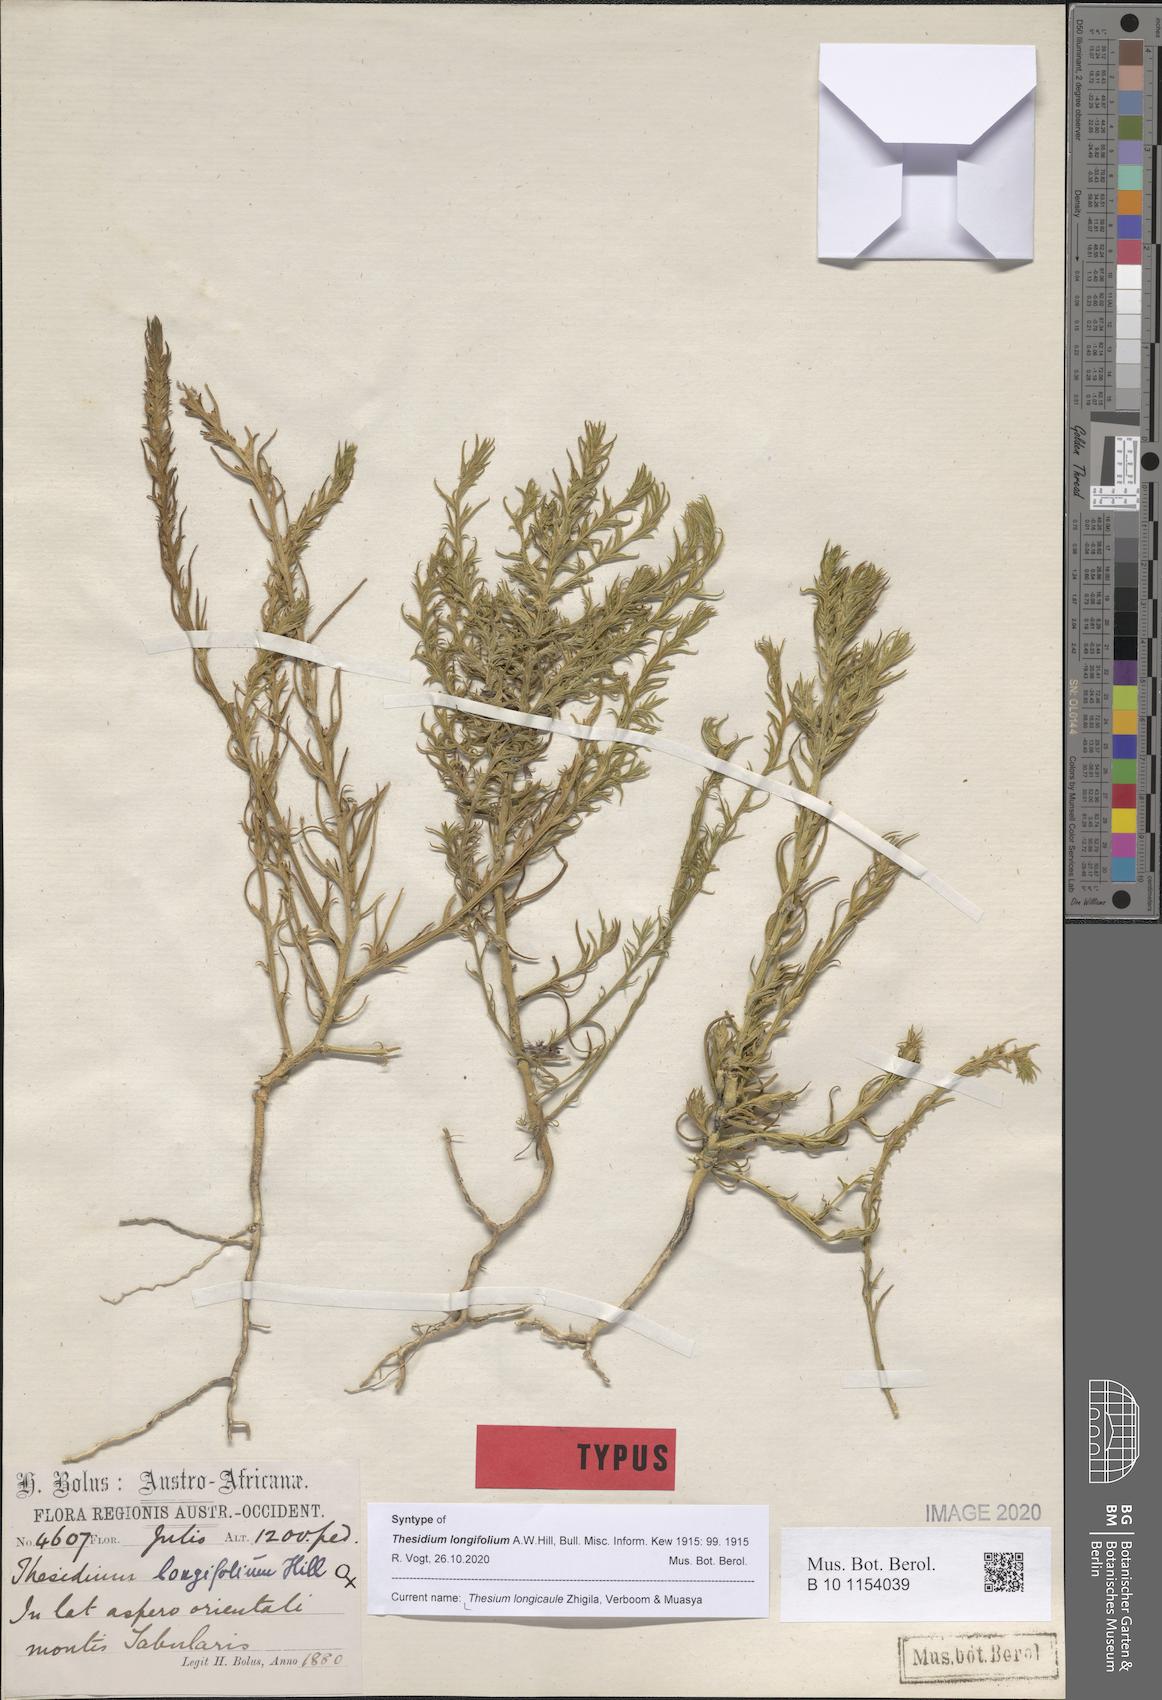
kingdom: Plantae
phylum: Tracheophyta
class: Magnoliopsida
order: Santalales
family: Thesiaceae
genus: Thesium
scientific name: Thesium longicaule
